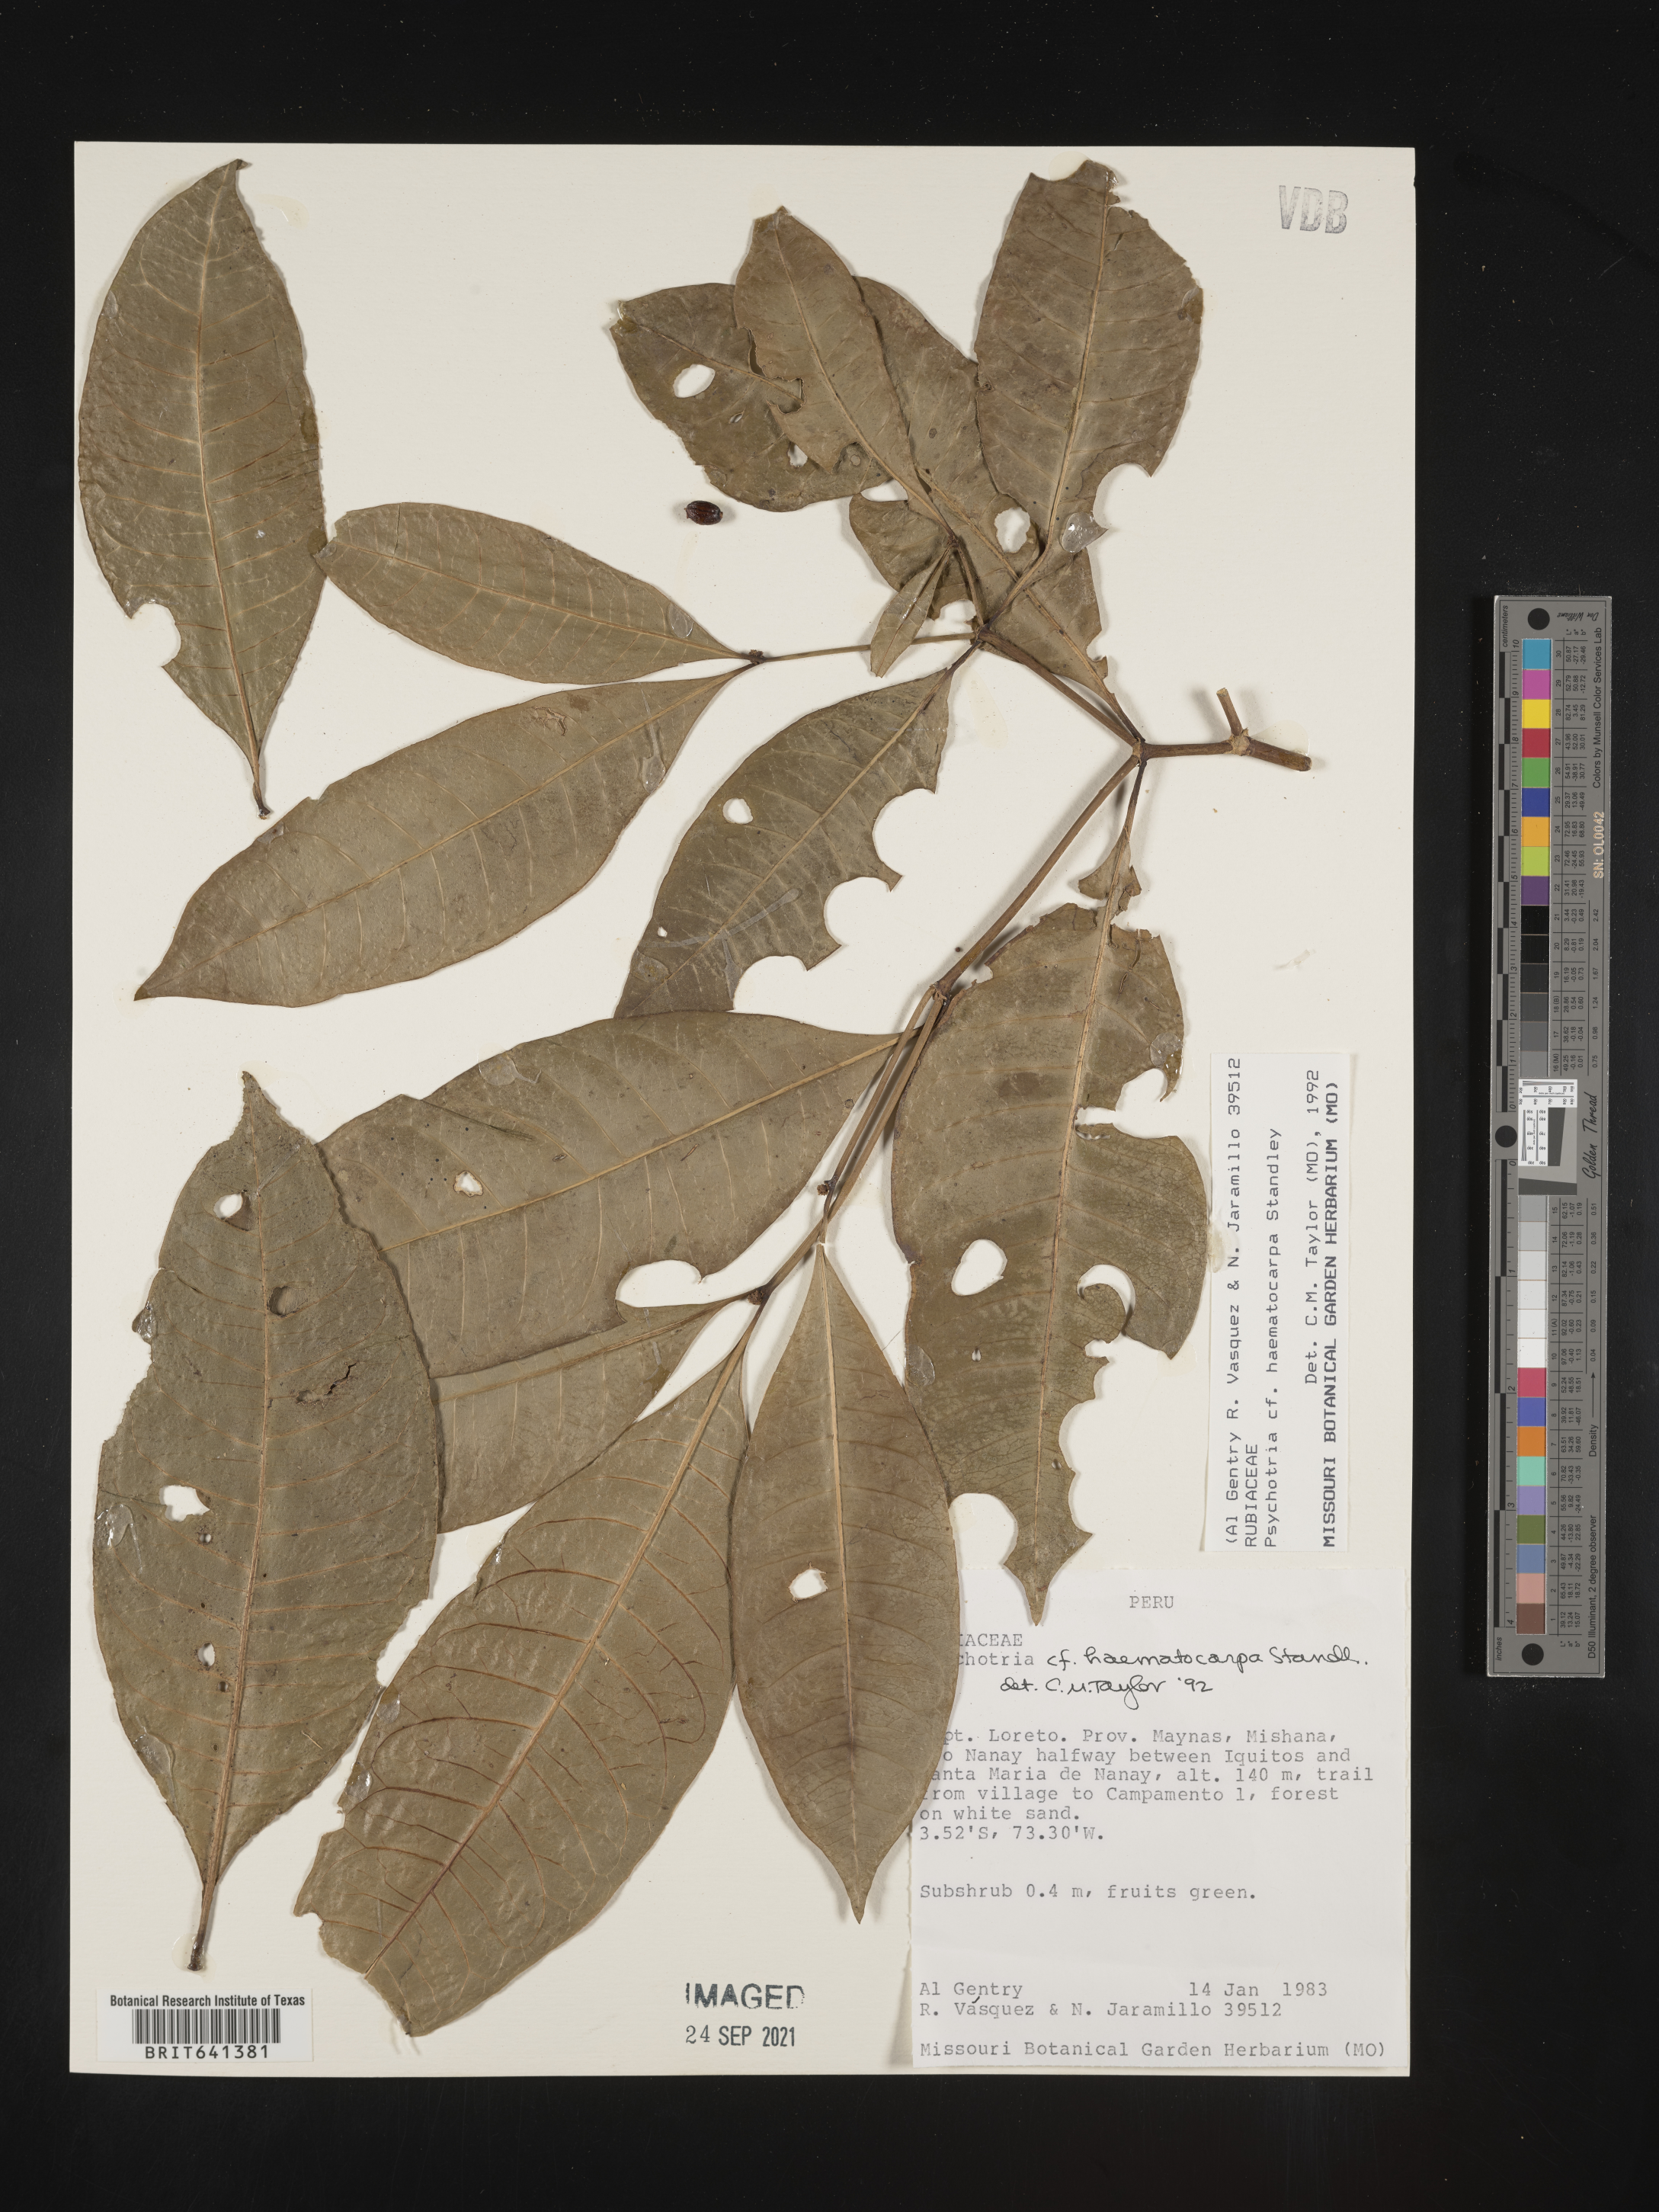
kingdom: Plantae
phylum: Tracheophyta
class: Magnoliopsida
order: Gentianales
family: Rubiaceae
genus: Psychotria
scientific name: Psychotria
